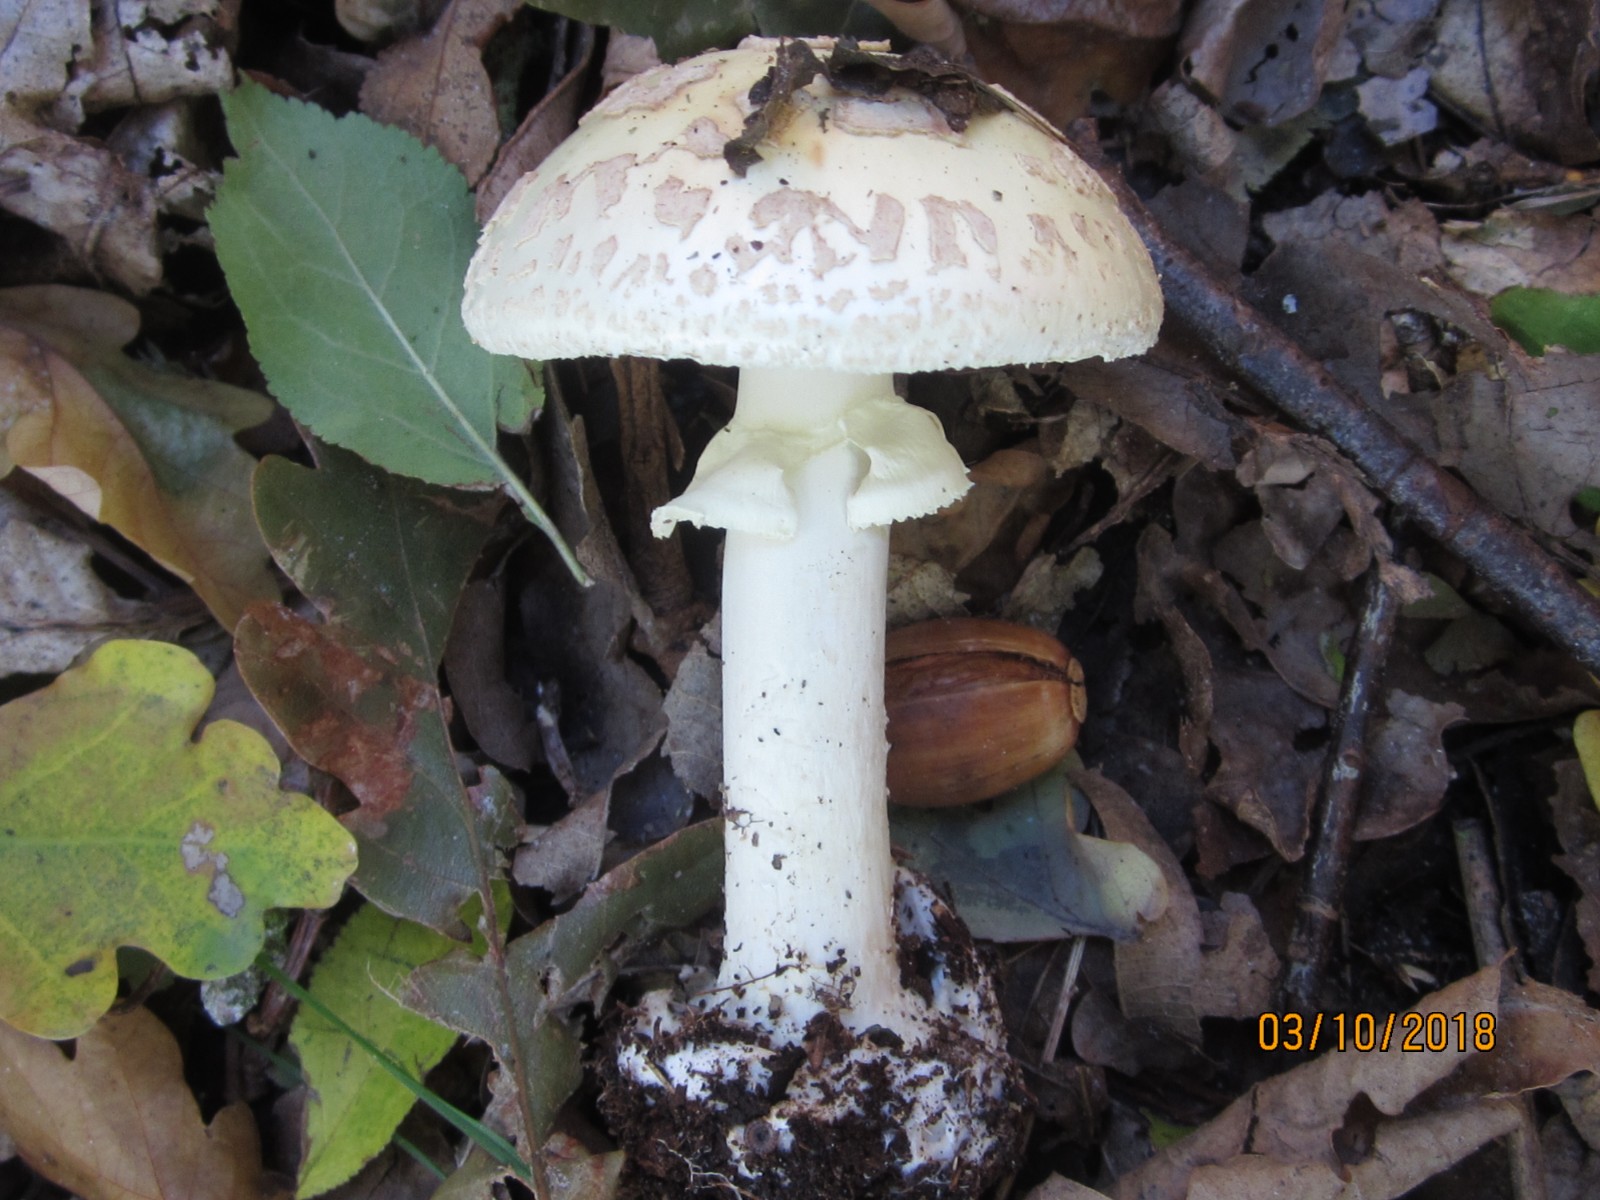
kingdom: Fungi
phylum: Basidiomycota
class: Agaricomycetes
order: Agaricales
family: Amanitaceae
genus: Amanita
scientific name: Amanita citrina
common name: kugleknoldet fluesvamp
